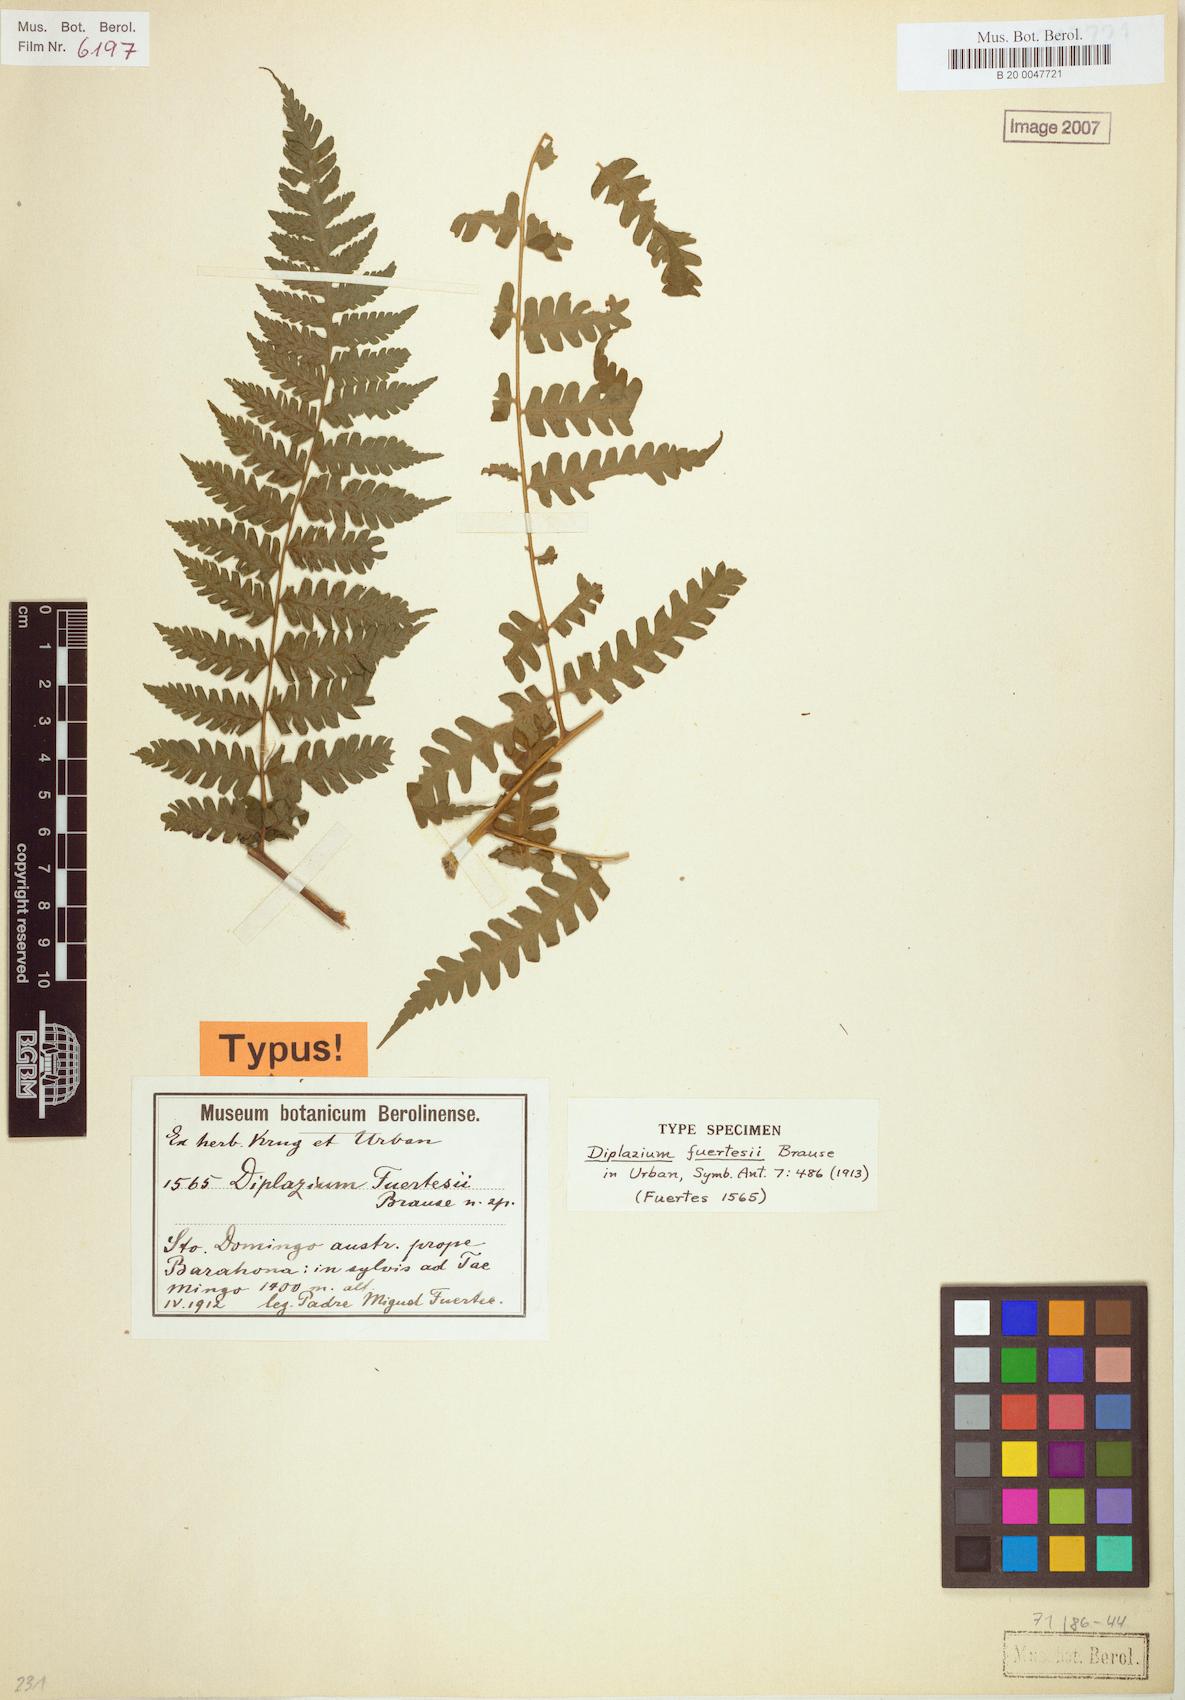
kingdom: Plantae
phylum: Tracheophyta
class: Polypodiopsida
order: Polypodiales
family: Athyriaceae
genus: Diplazium
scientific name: Diplazium fuertesii
